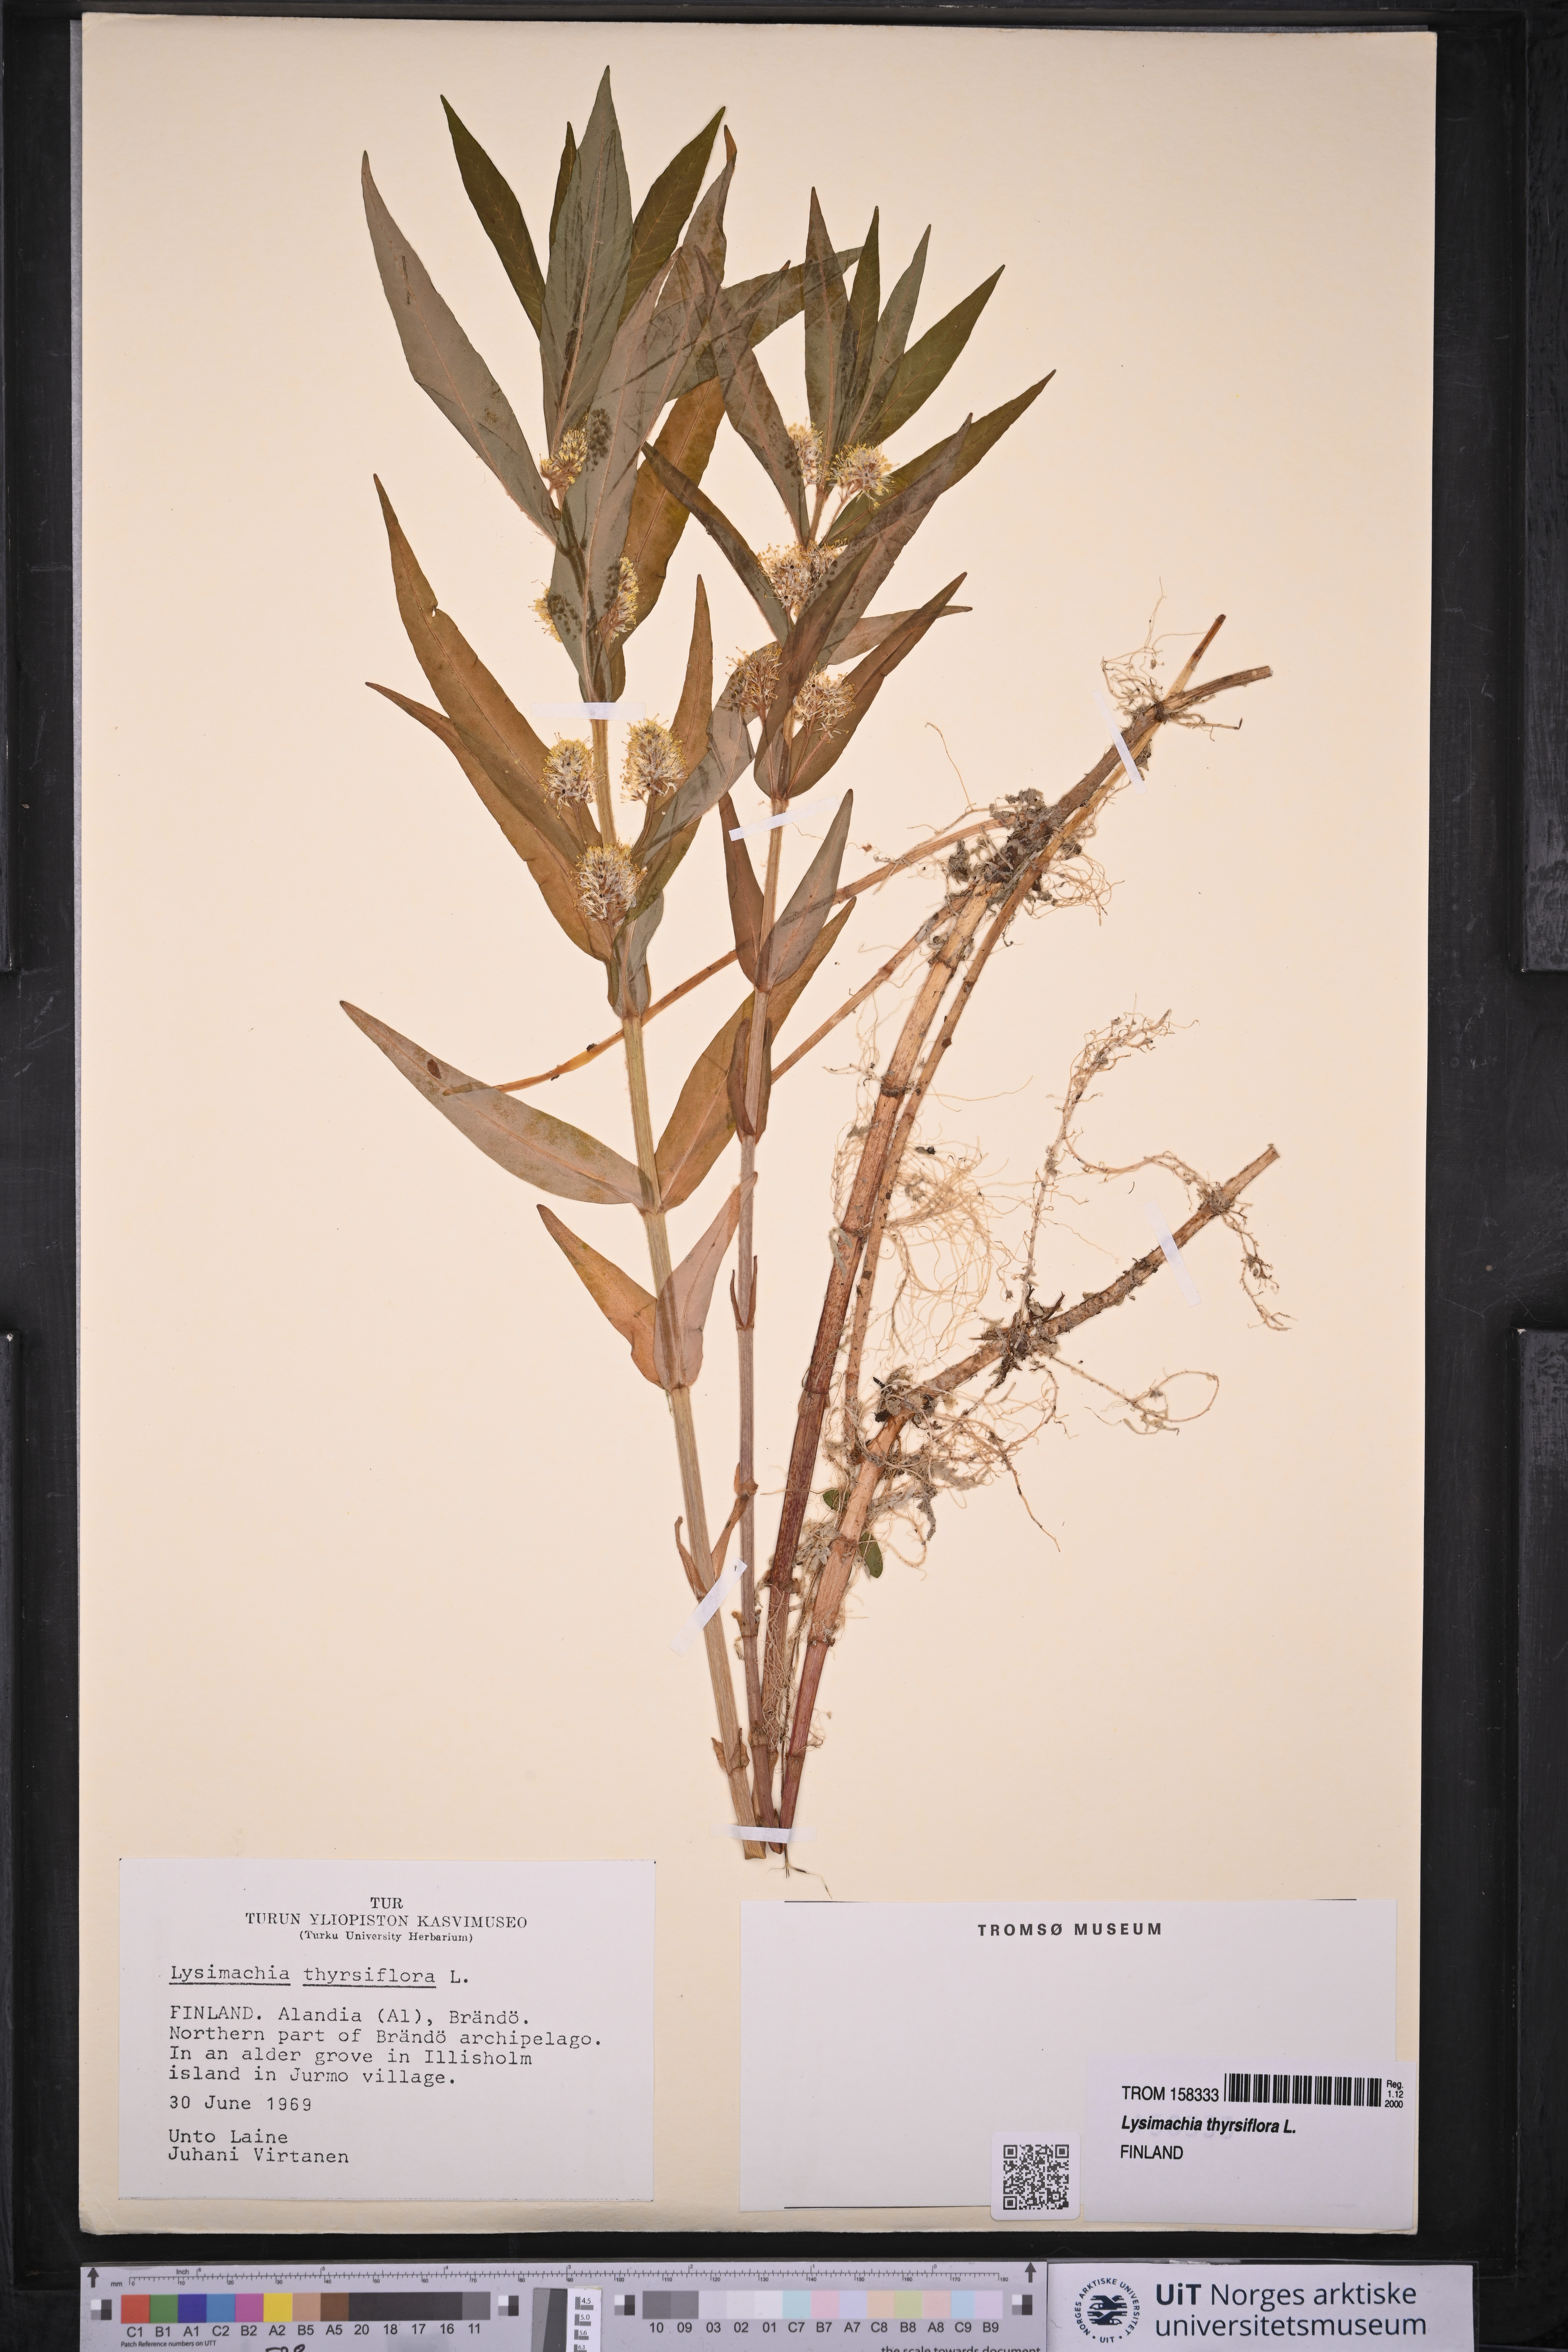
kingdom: Plantae
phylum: Tracheophyta
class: Magnoliopsida
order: Ericales
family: Primulaceae
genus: Lysimachia
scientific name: Lysimachia thyrsiflora
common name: Tufted loosestrife
